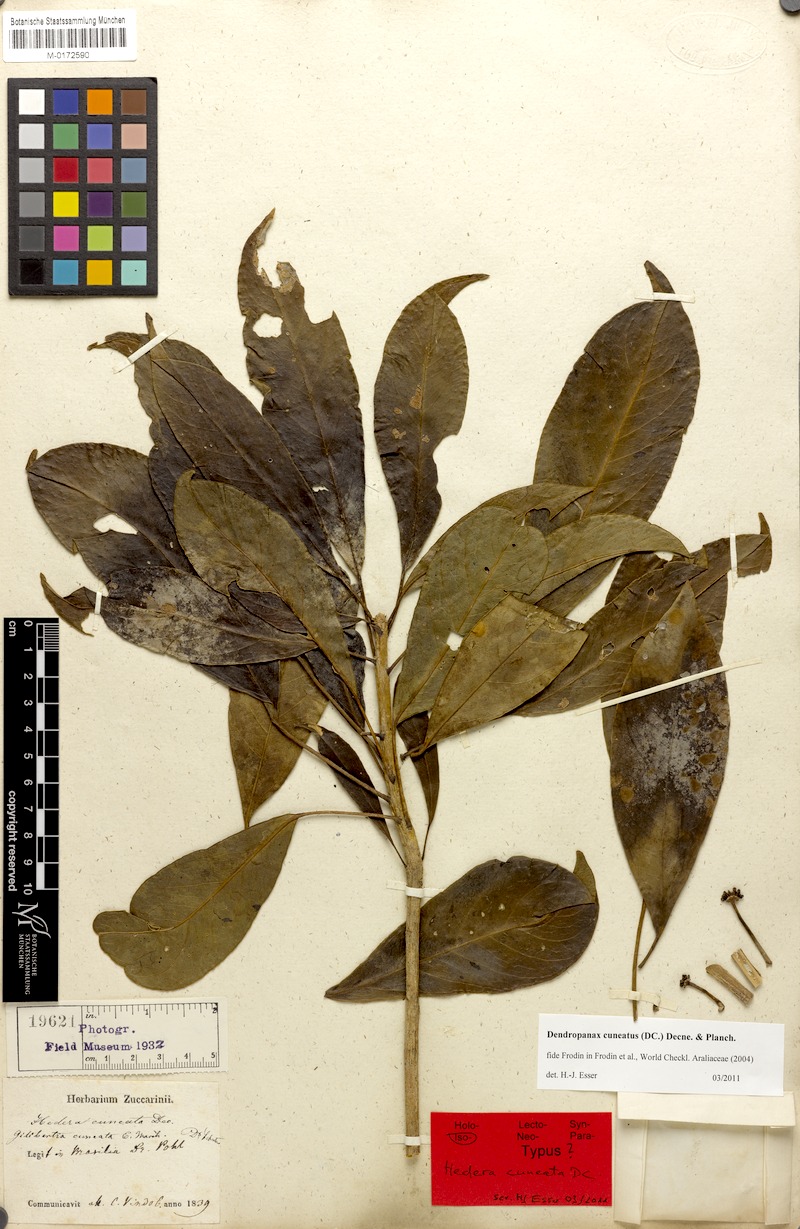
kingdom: Plantae
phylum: Tracheophyta
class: Magnoliopsida
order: Apiales
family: Araliaceae
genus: Dendropanax
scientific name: Dendropanax cuneatus
